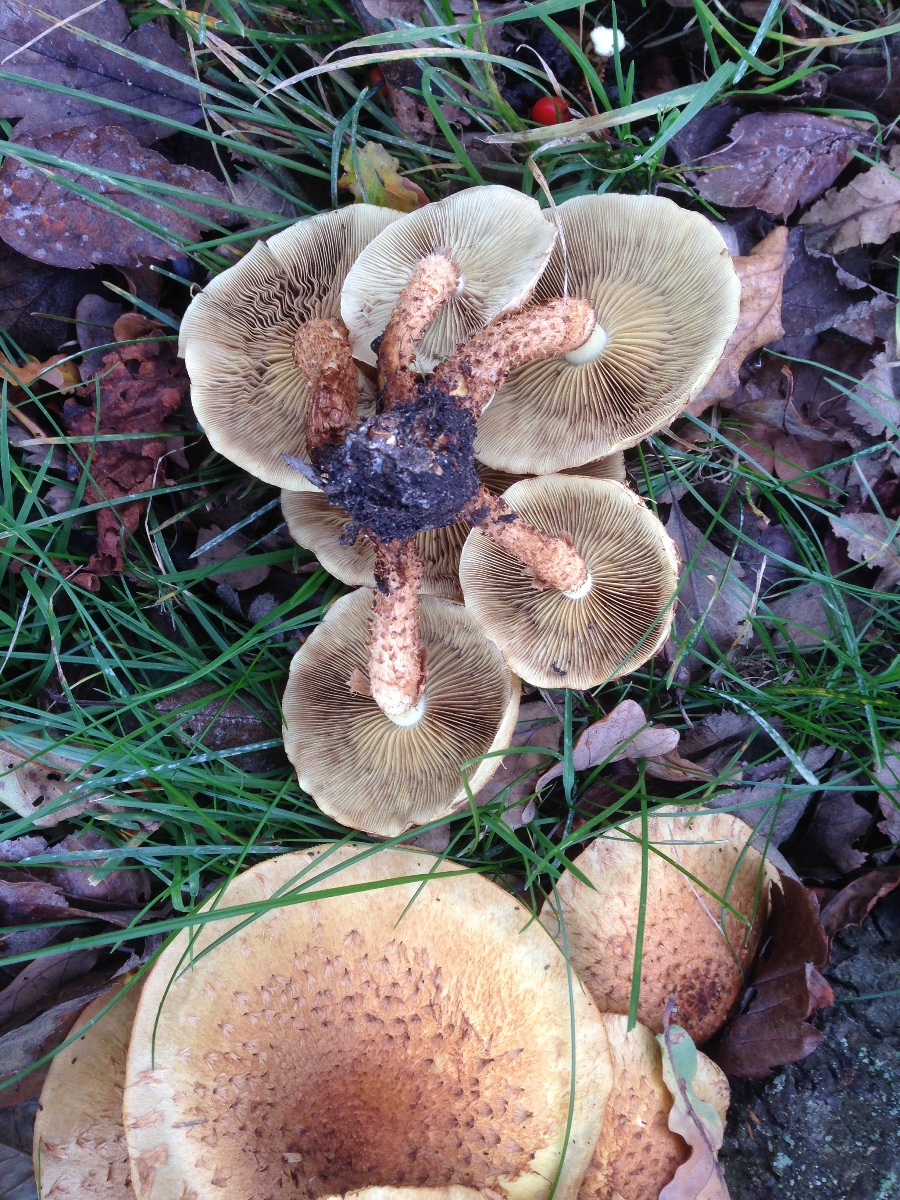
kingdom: Fungi
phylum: Basidiomycota
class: Agaricomycetes
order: Agaricales
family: Strophariaceae
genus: Pholiota
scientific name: Pholiota squarrosa
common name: krumskællet skælhat
